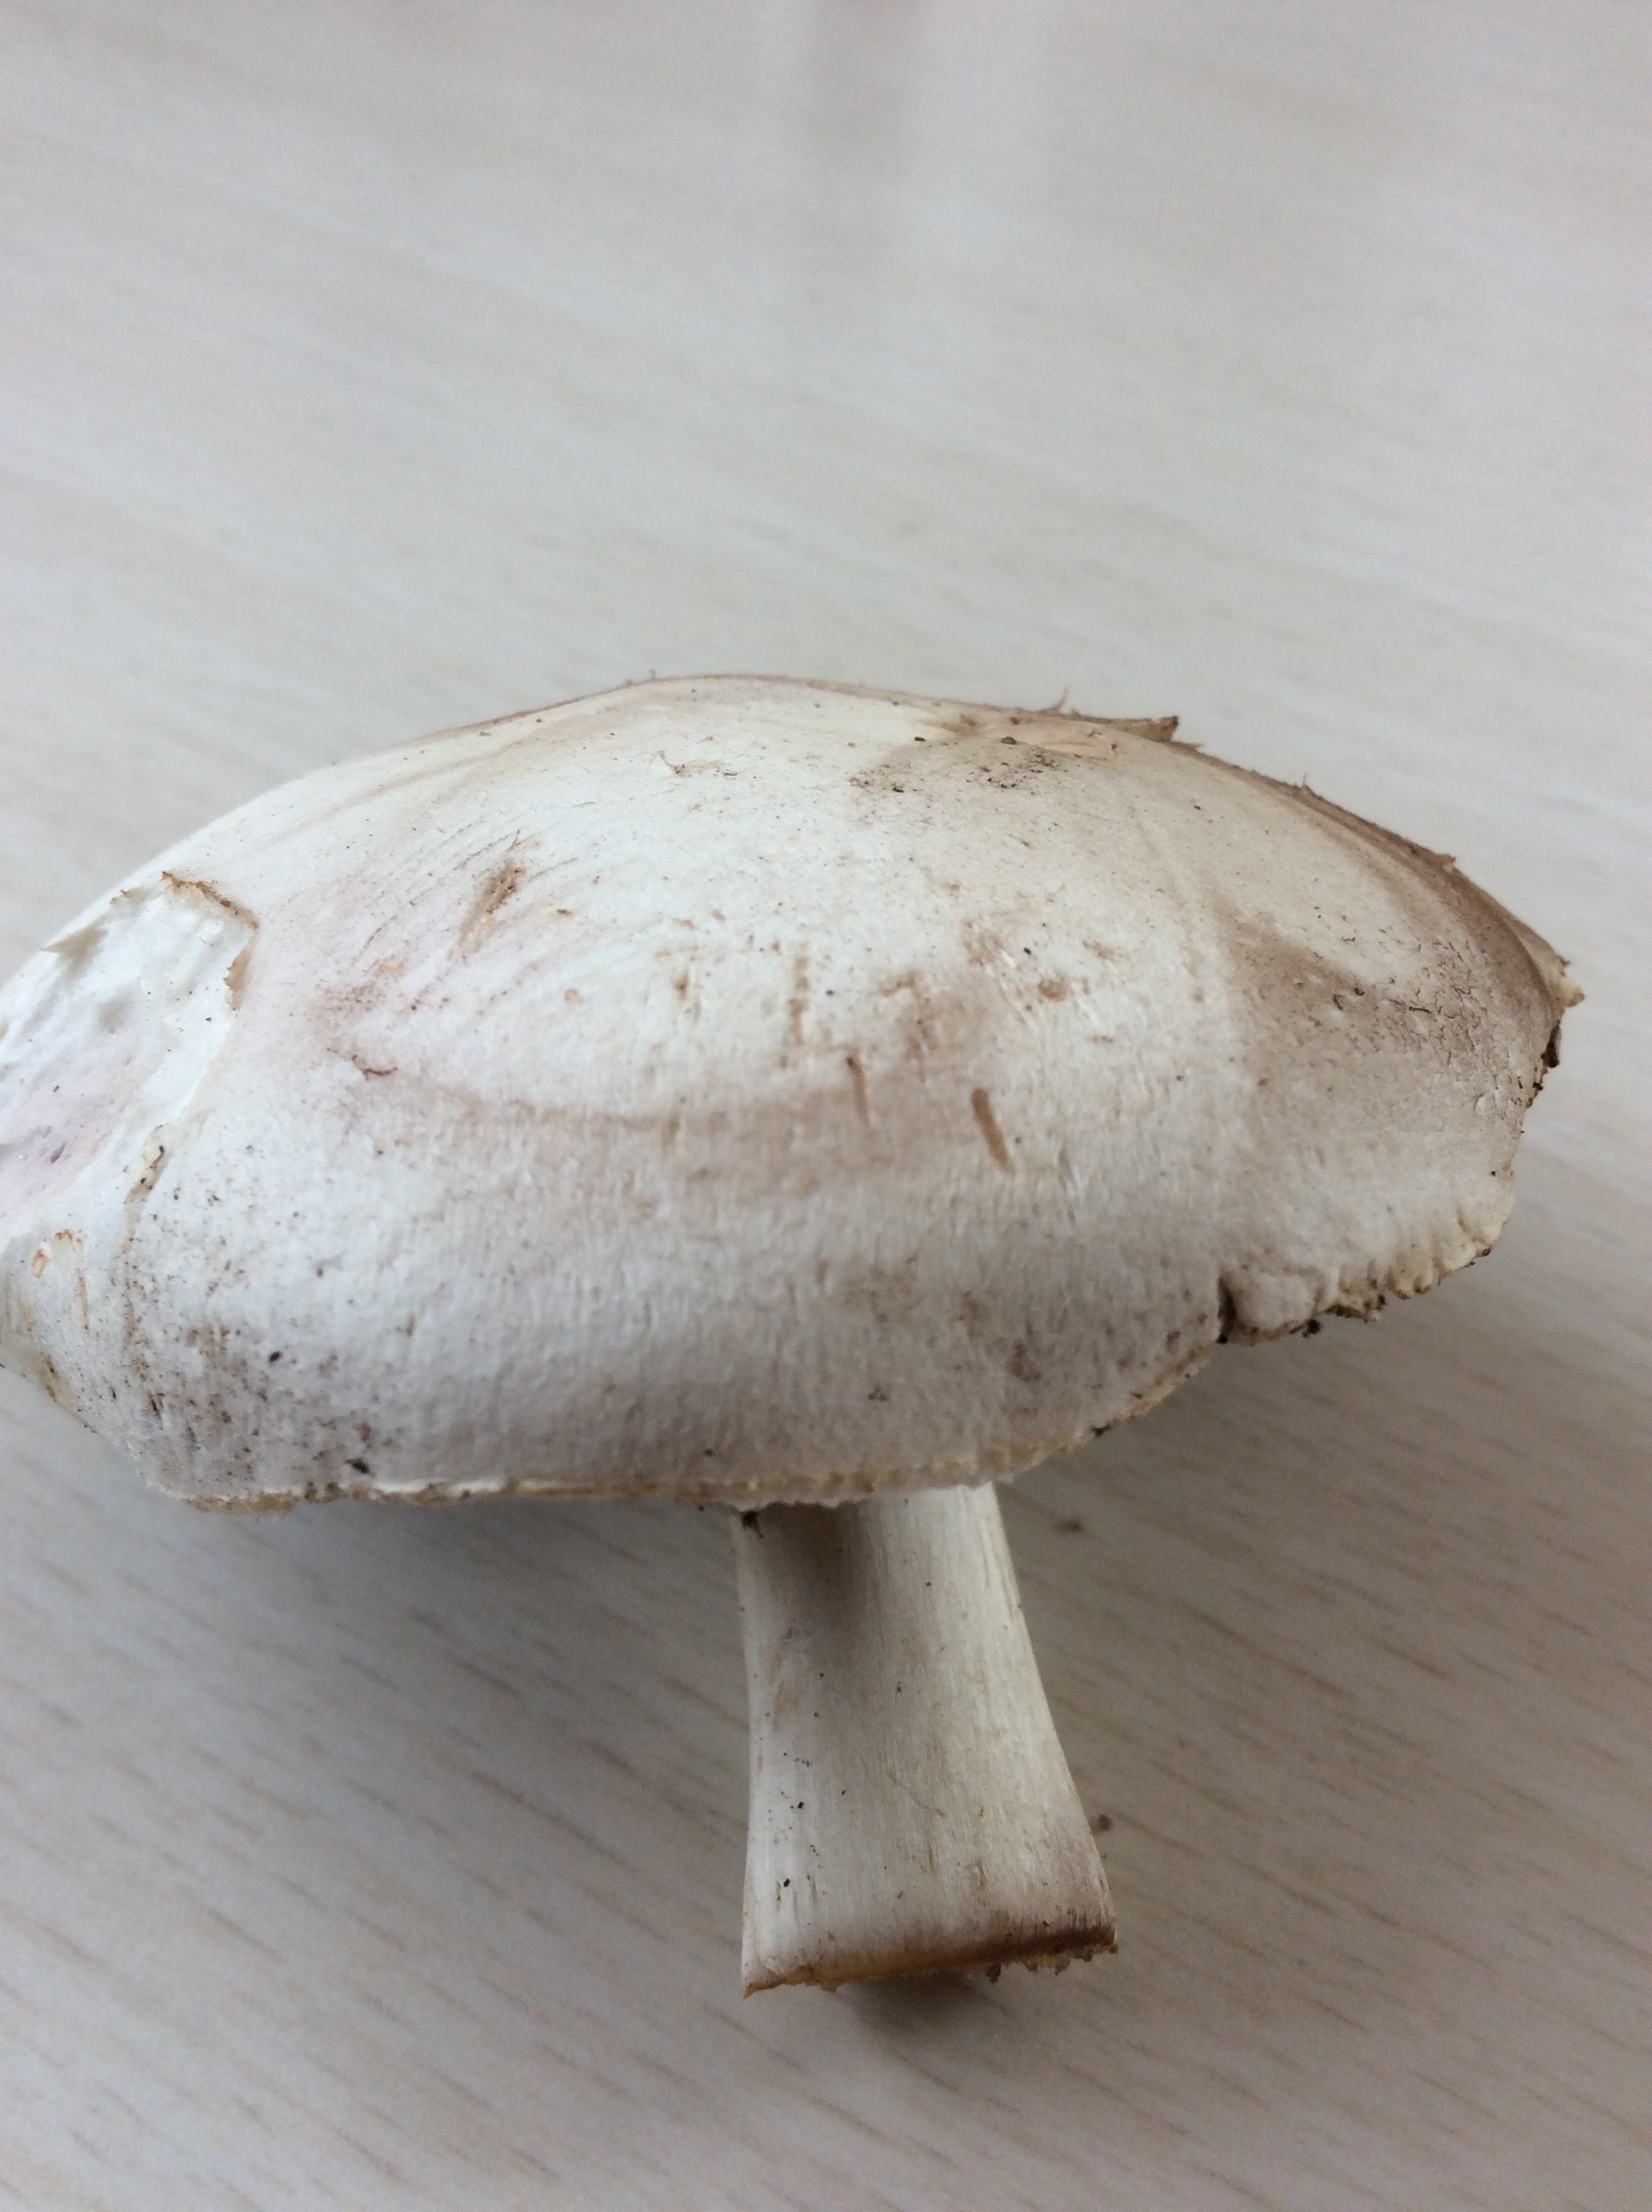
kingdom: Fungi
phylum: Basidiomycota
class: Agaricomycetes
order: Agaricales
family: Agaricaceae
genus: Agaricus
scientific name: Agaricus
